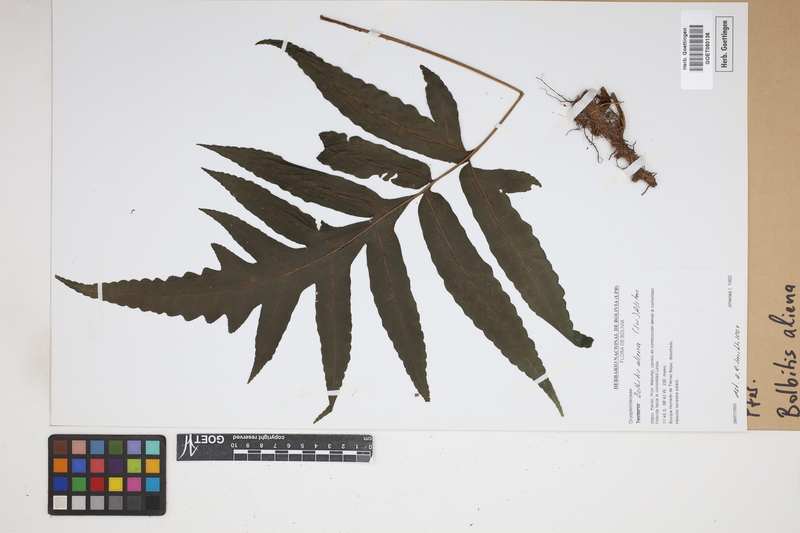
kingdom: Plantae
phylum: Tracheophyta
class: Polypodiopsida
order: Polypodiales
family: Dryopteridaceae
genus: Bolbitis
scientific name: Bolbitis aliena
